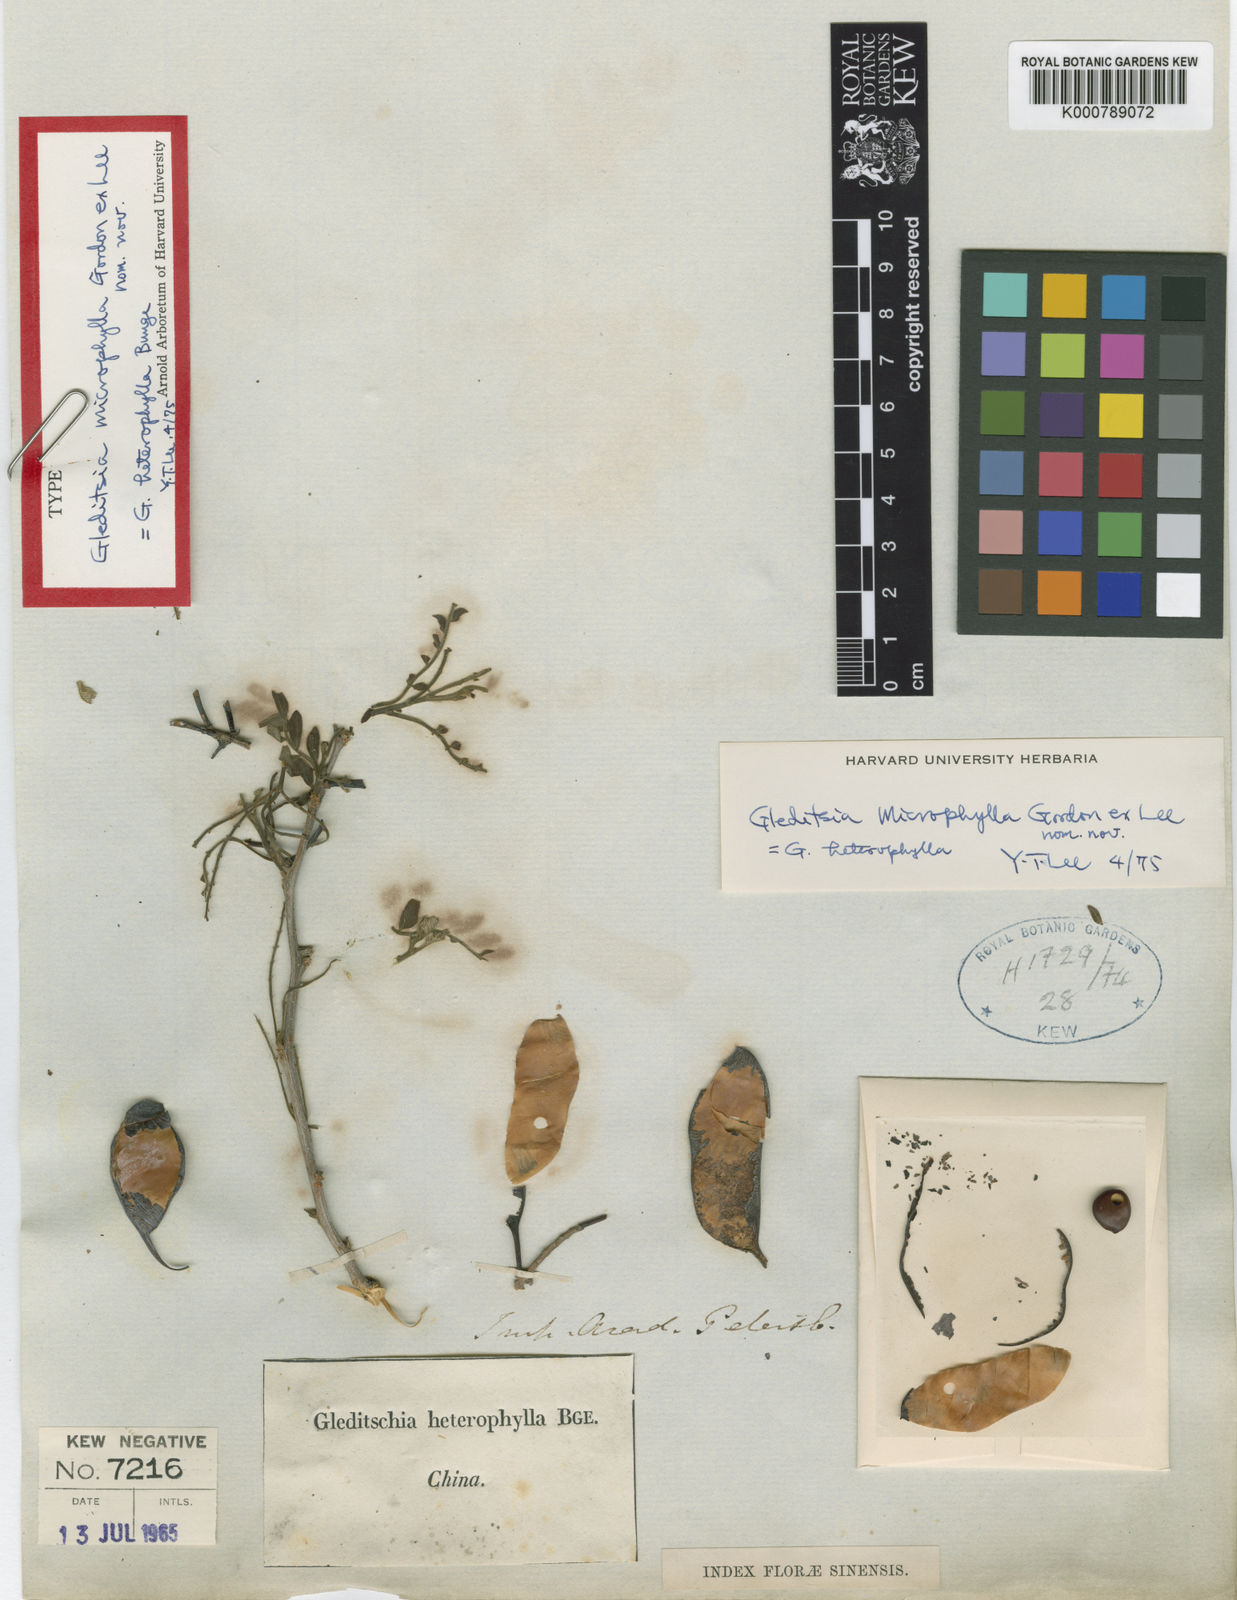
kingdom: Plantae
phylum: Tracheophyta
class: Magnoliopsida
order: Fabales
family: Fabaceae
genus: Gleditsia
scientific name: Gleditsia microphylla
